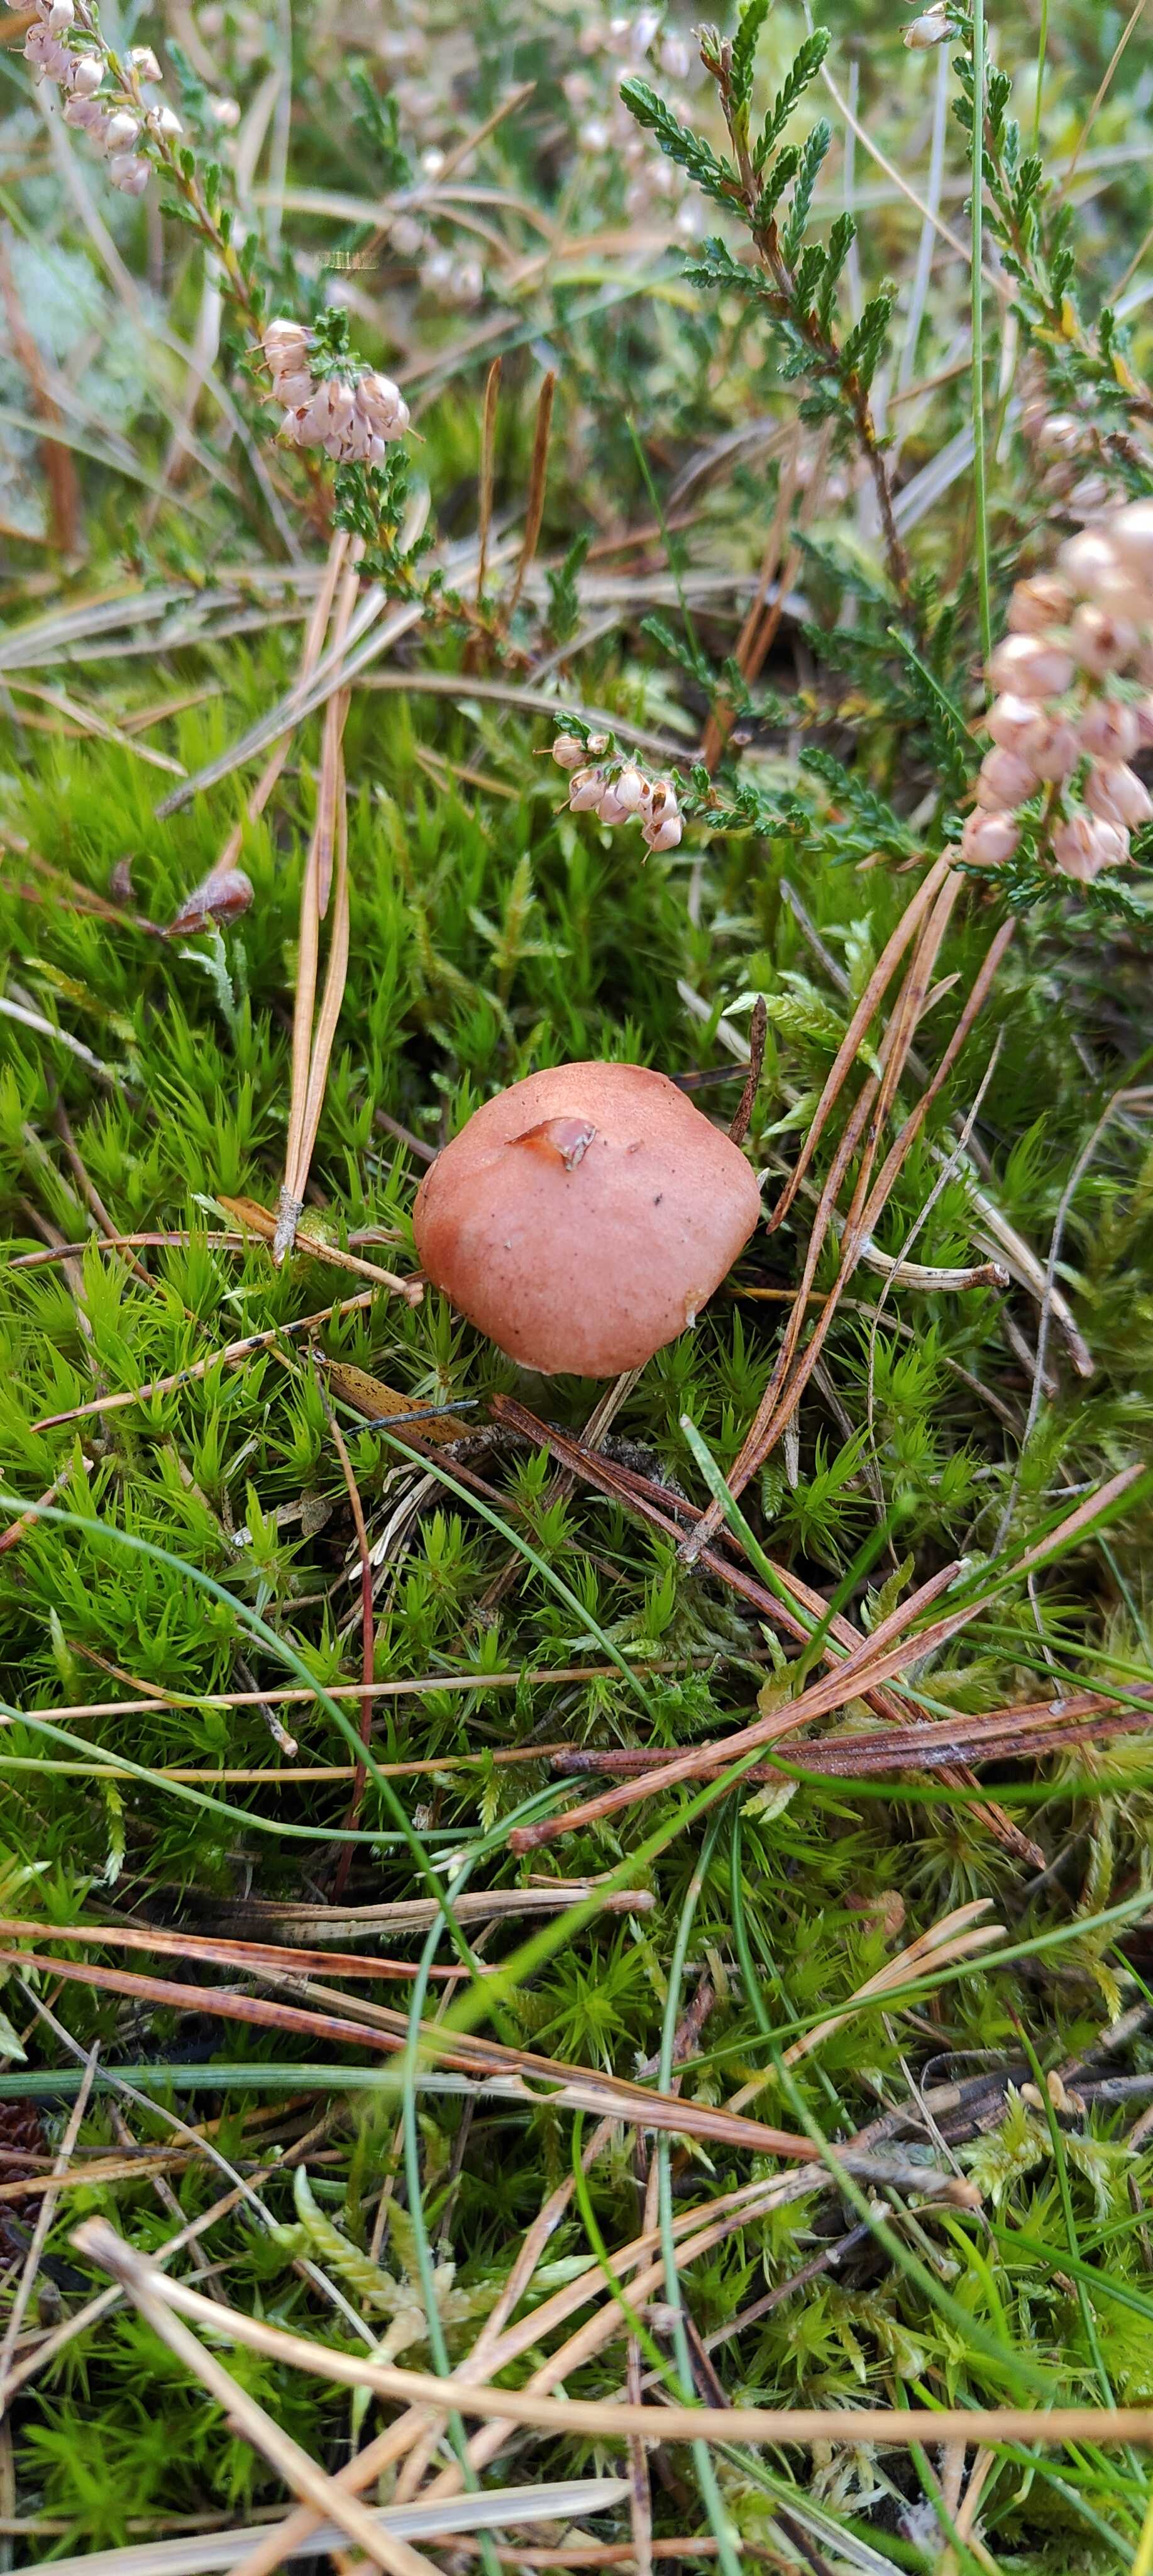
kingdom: Fungi
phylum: Basidiomycota
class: Agaricomycetes
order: Boletales
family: Gomphidiaceae
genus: Gomphidius
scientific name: Gomphidius roseus
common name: rosenrød slimslør
